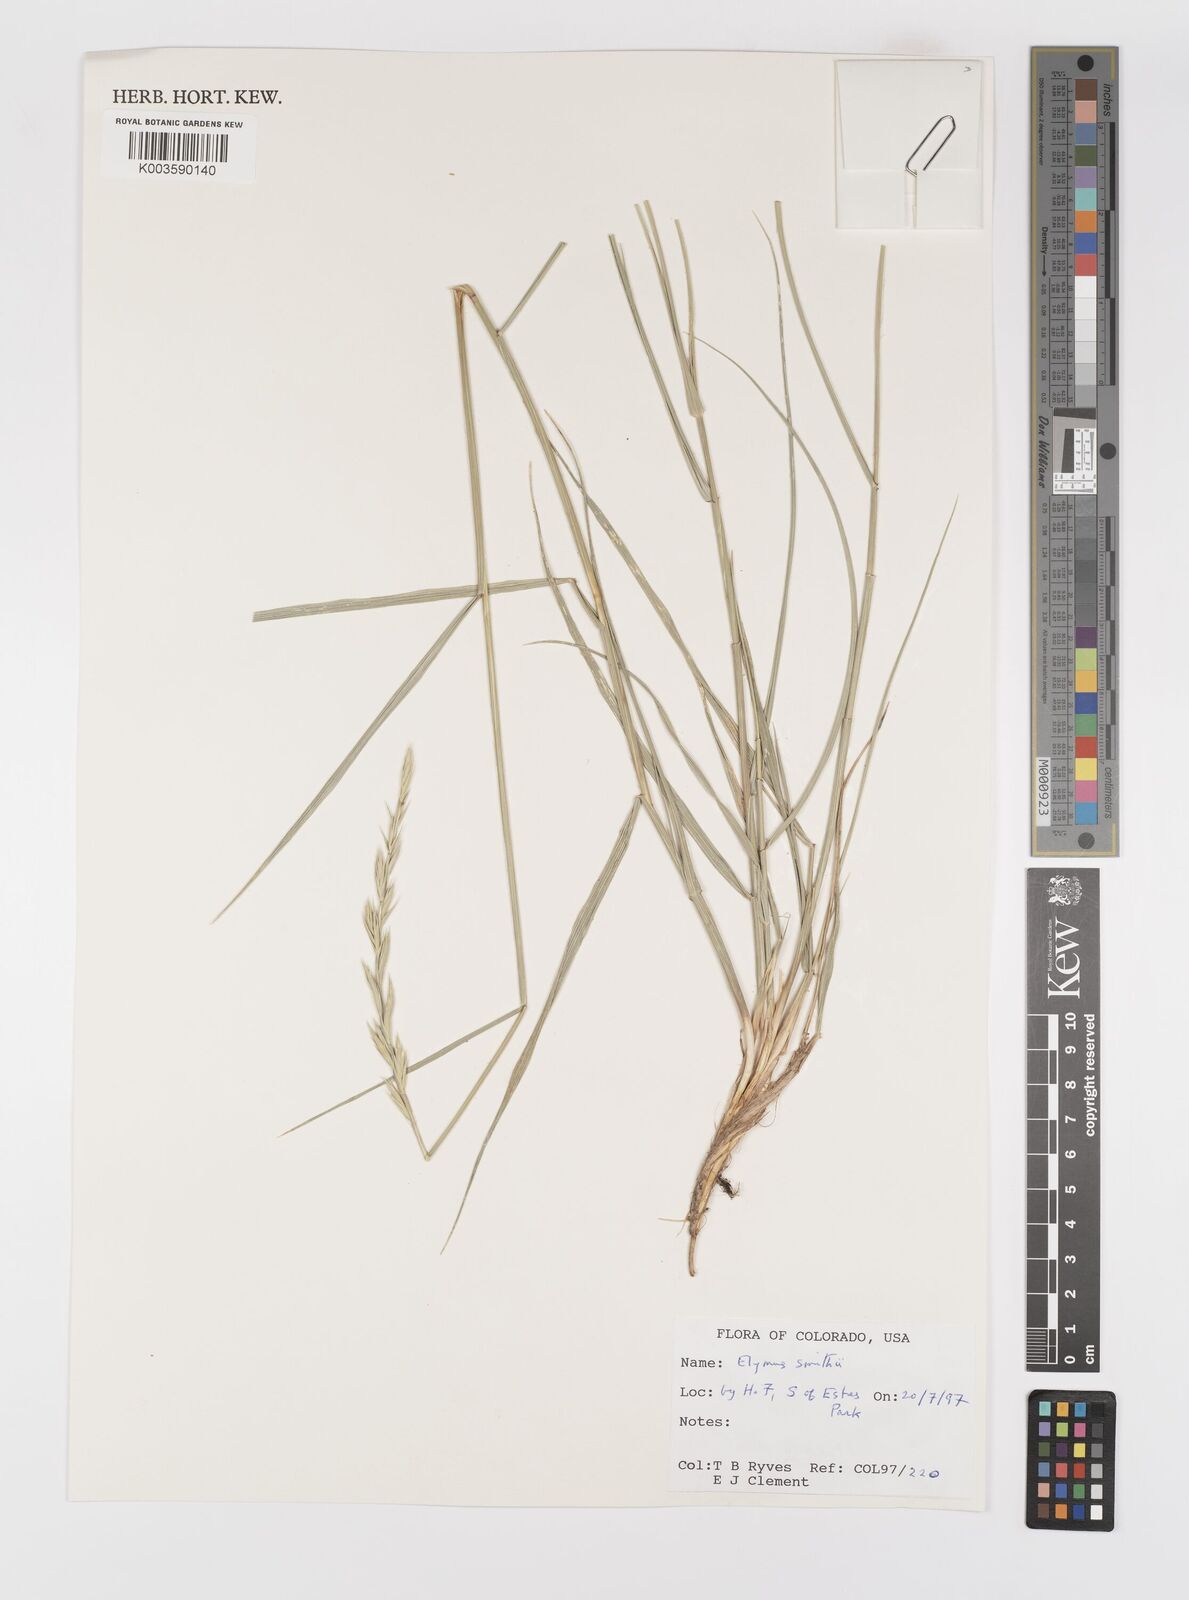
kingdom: Plantae
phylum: Tracheophyta
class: Liliopsida
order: Poales
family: Poaceae
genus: Elymus
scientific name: Elymus smithii
